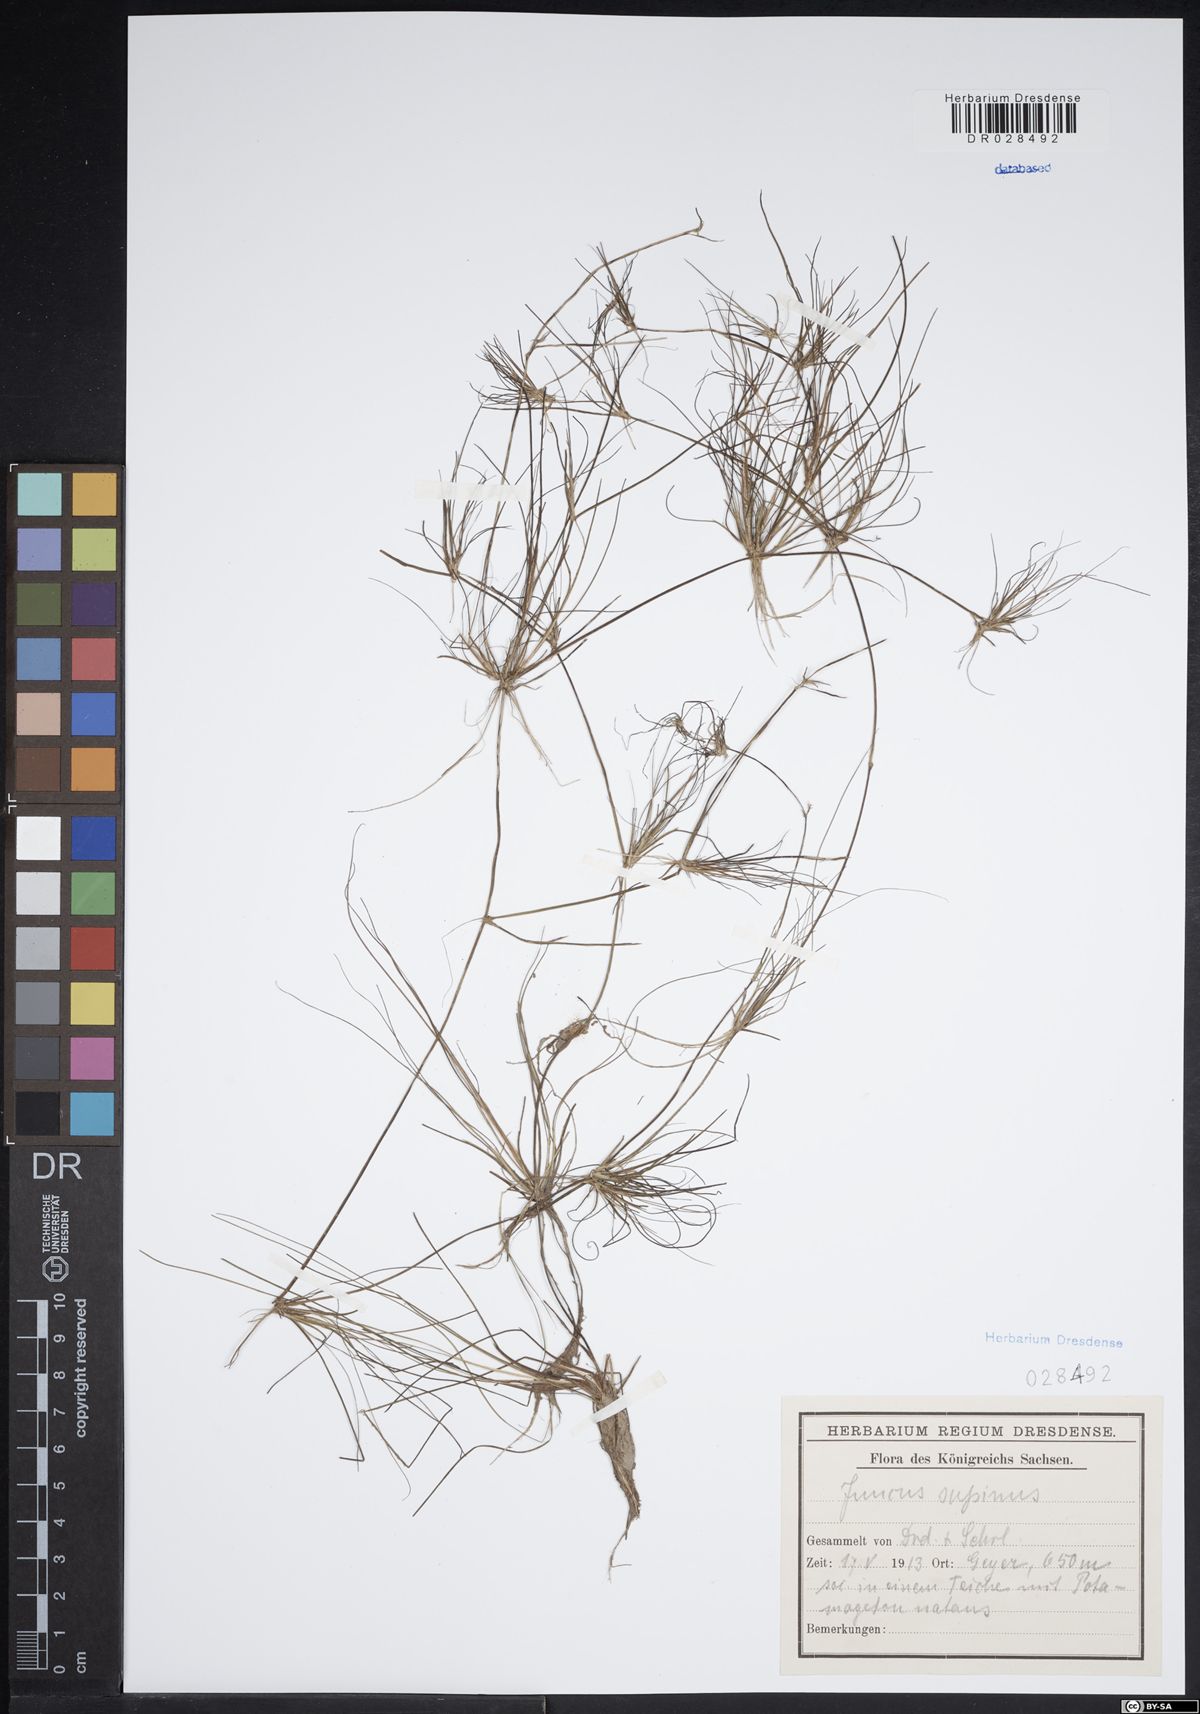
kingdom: Plantae
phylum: Tracheophyta
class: Liliopsida
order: Poales
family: Juncaceae
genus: Juncus
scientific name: Juncus bulbosus
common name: Bulbous rush
